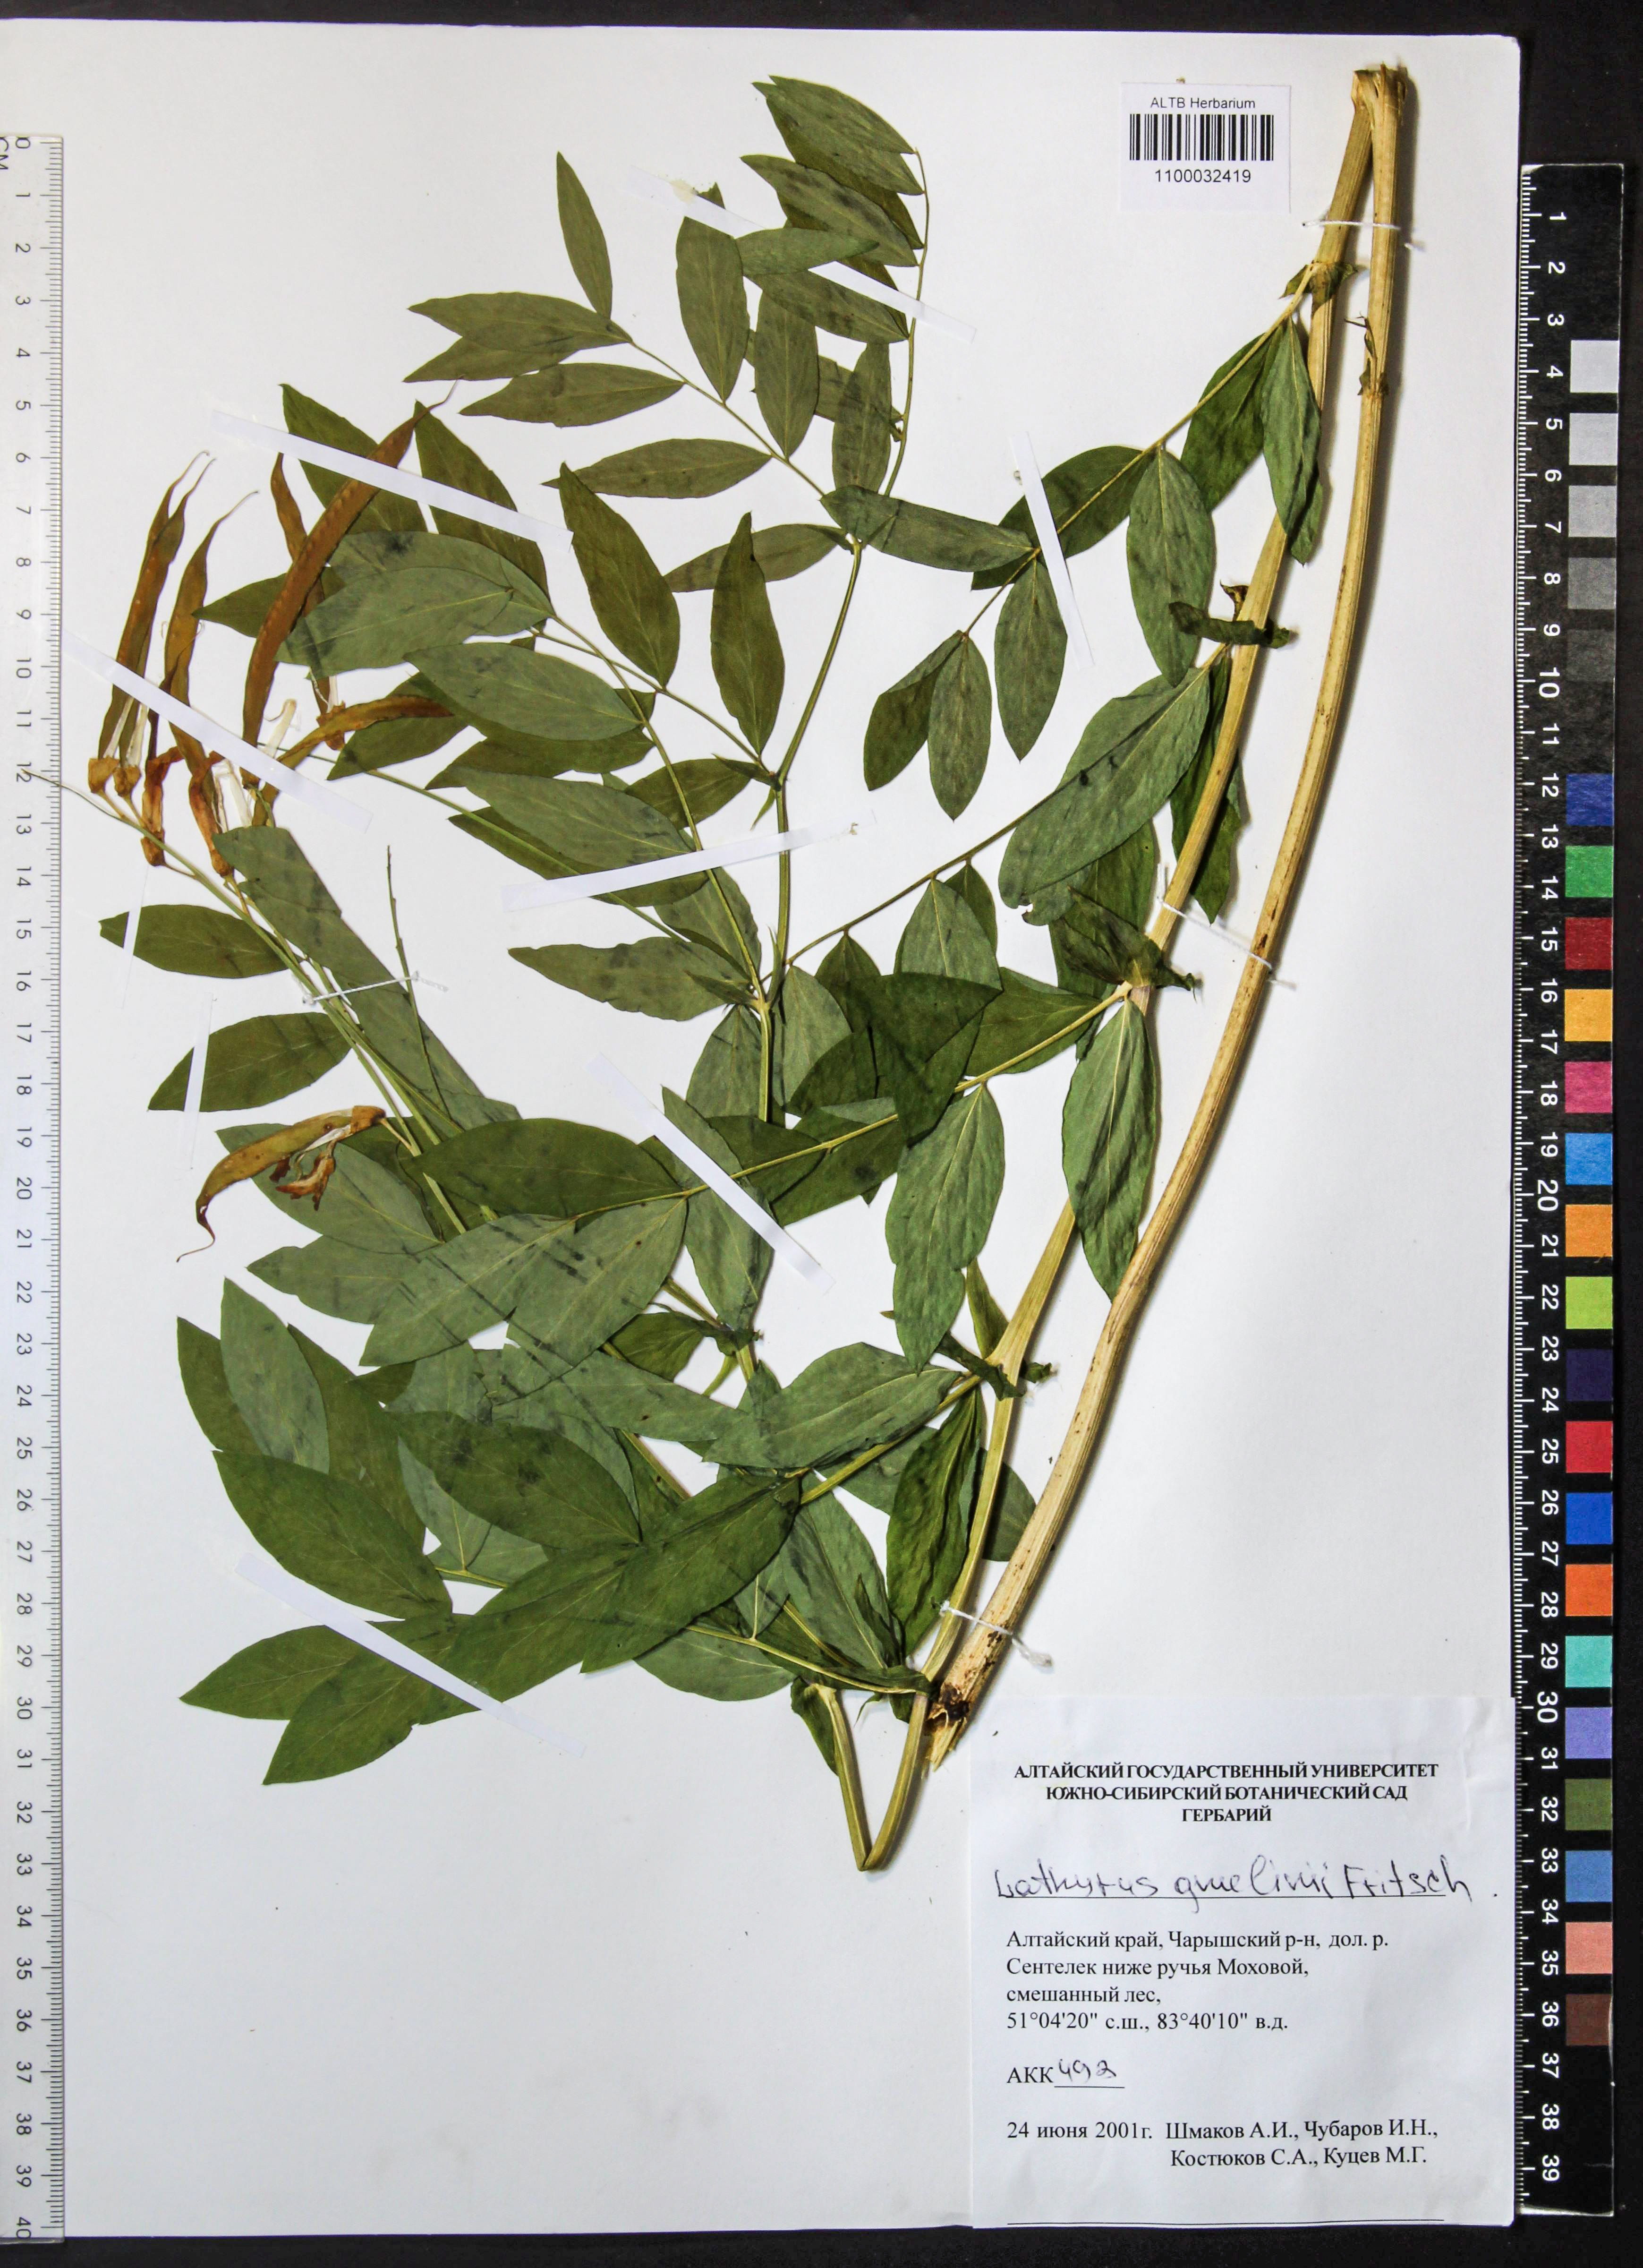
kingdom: Plantae
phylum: Tracheophyta
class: Magnoliopsida
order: Fabales
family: Fabaceae
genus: Lathyrus
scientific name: Lathyrus gmelinii
